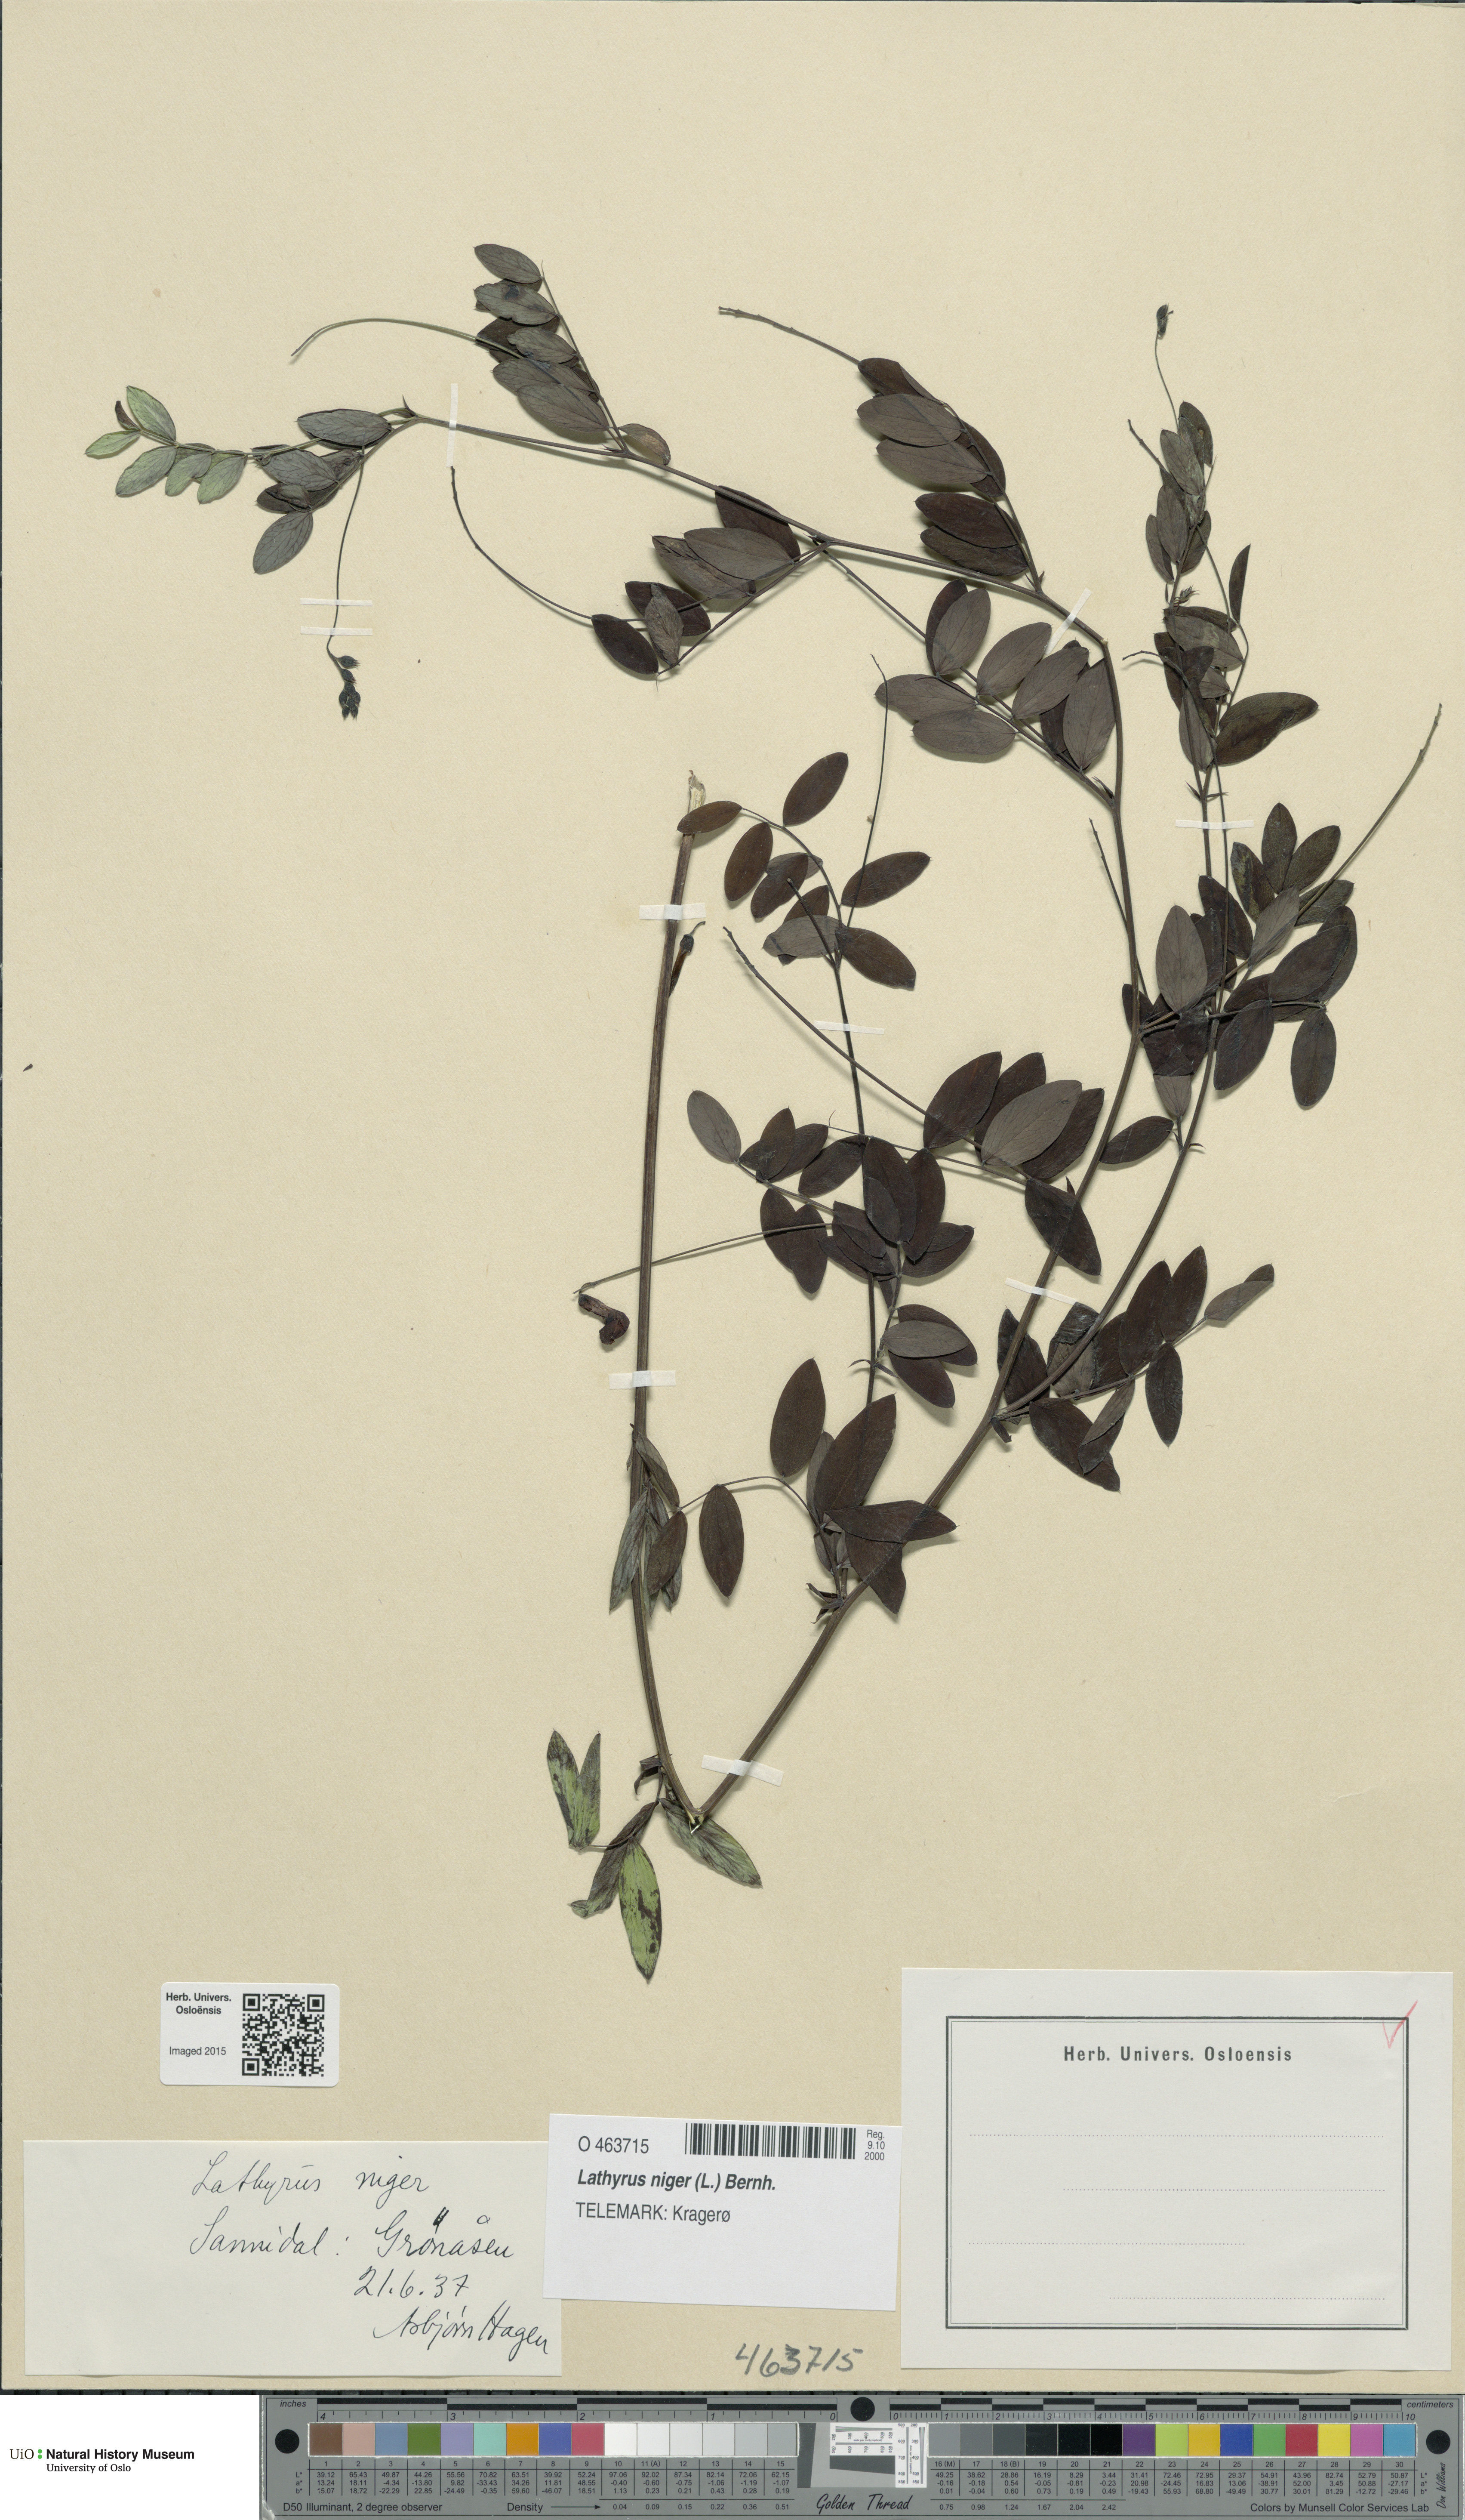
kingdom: Plantae
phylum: Tracheophyta
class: Magnoliopsida
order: Fabales
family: Fabaceae
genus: Lathyrus
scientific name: Lathyrus niger
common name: Black pea
